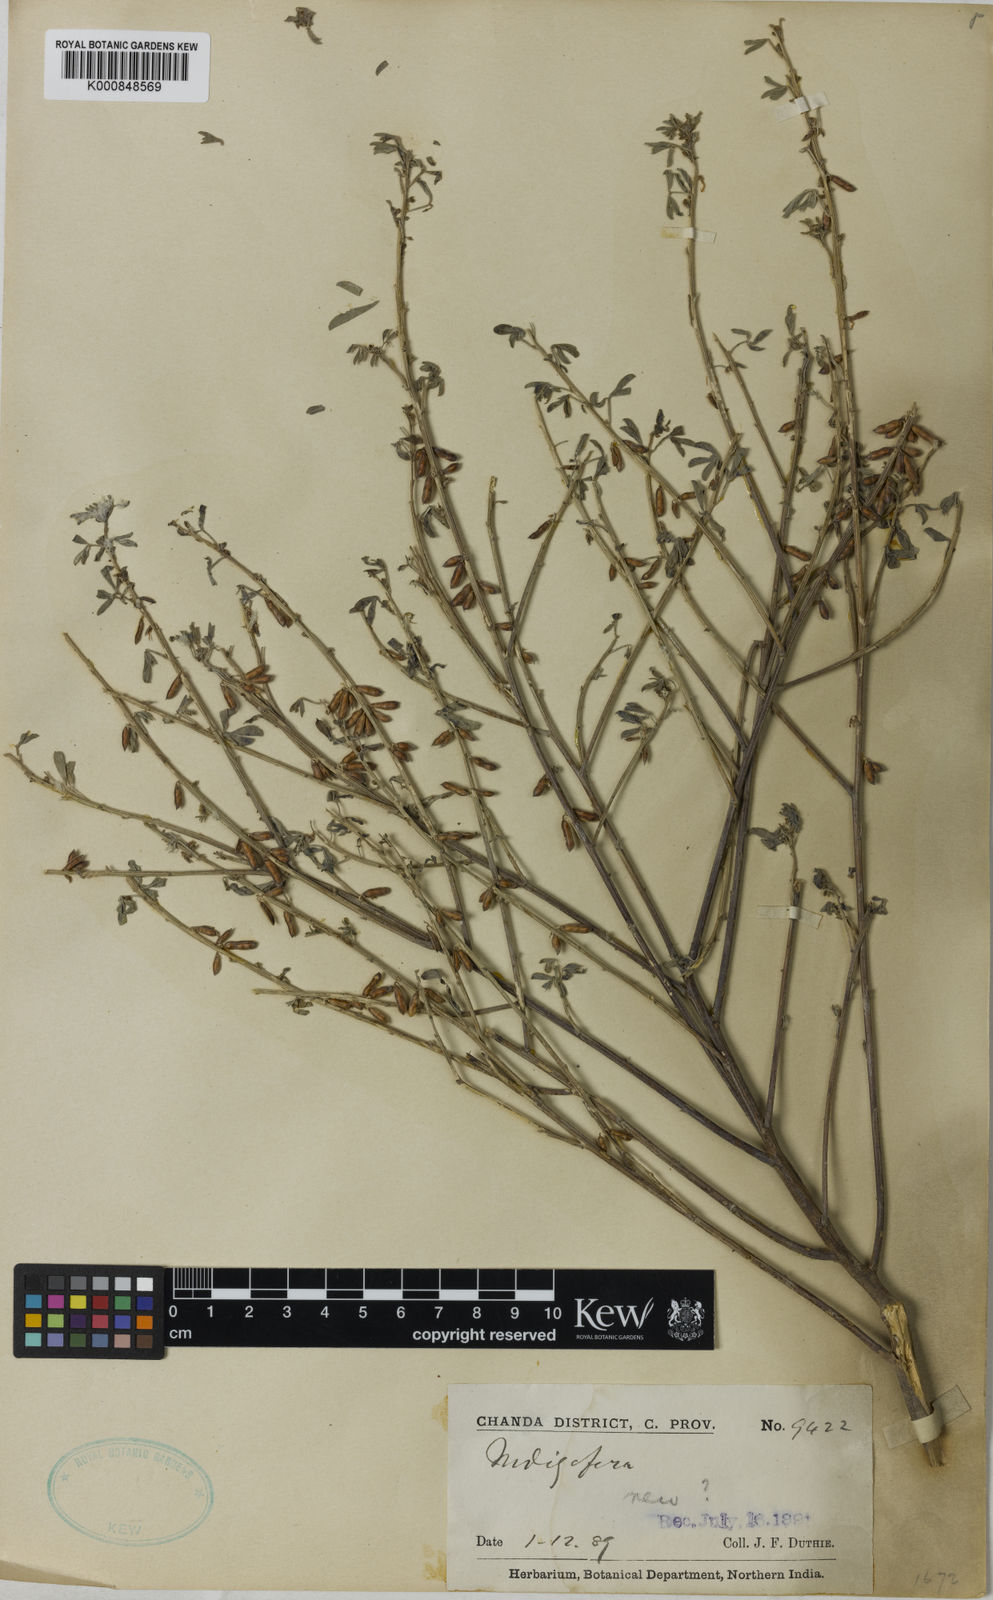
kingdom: Plantae
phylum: Tracheophyta
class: Magnoliopsida
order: Fabales
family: Fabaceae
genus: Indigofera
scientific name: Indigofera trifoliata
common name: Threeleaf indigo
